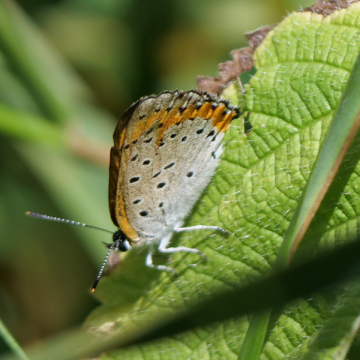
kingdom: Animalia
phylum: Arthropoda
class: Insecta
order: Lepidoptera
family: Sesiidae
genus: Sesia
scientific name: Sesia Lycaena hyllus
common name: Bronze Copper
